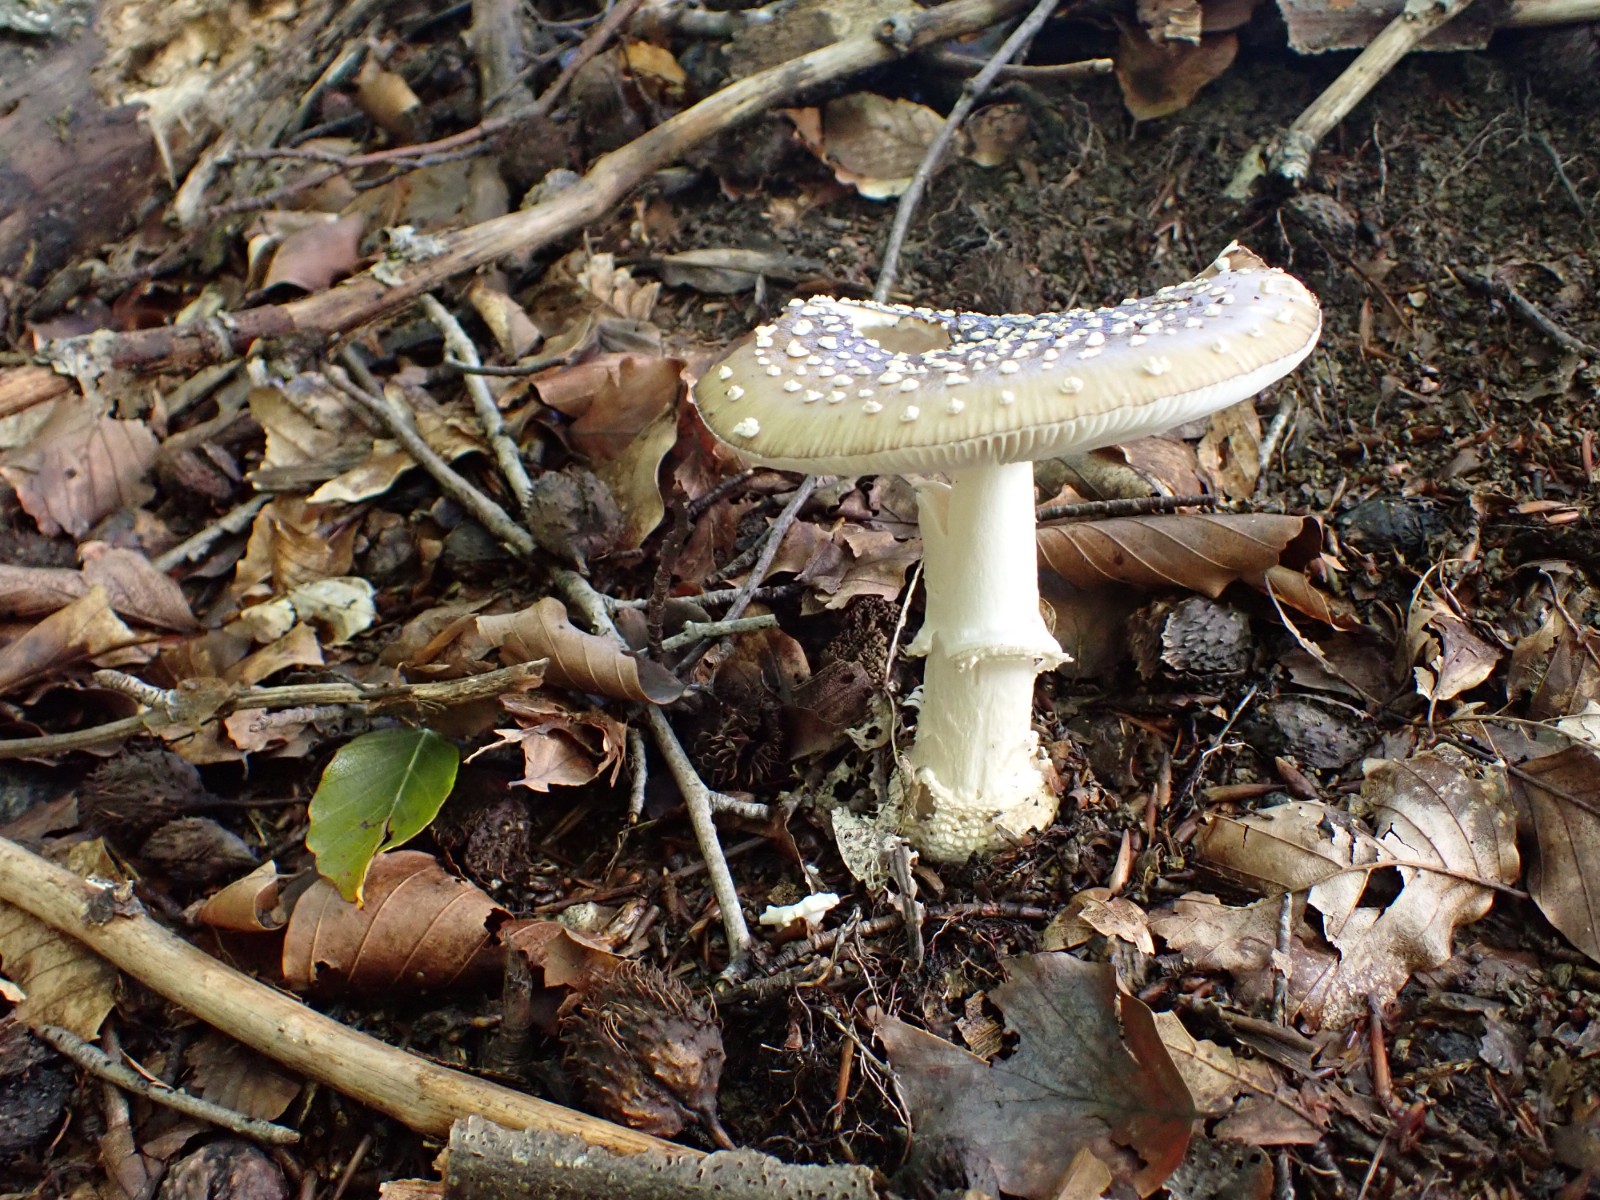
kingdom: Fungi
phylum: Basidiomycota
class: Agaricomycetes
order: Agaricales
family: Amanitaceae
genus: Amanita
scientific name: Amanita pantherina
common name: panter-fluesvamp
